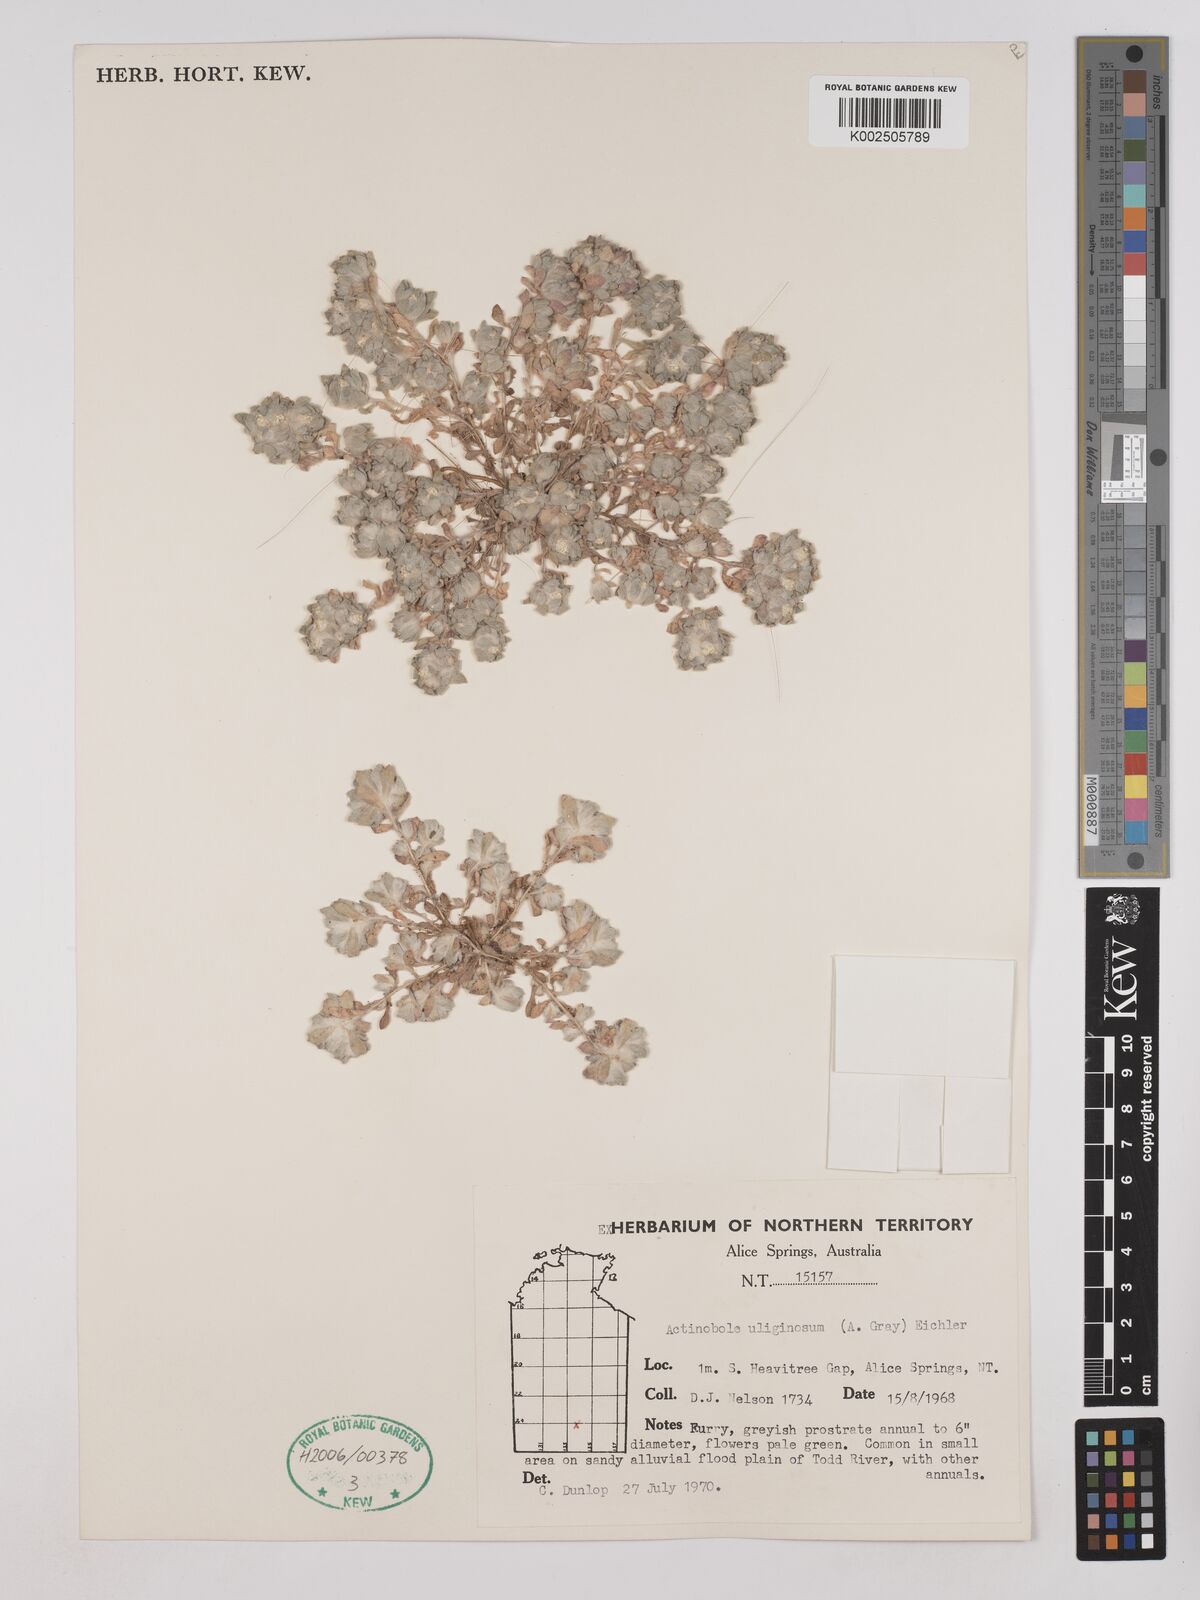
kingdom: Plantae
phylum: Tracheophyta
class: Magnoliopsida
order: Asterales
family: Asteraceae
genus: Actinobole
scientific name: Actinobole uliginosum
